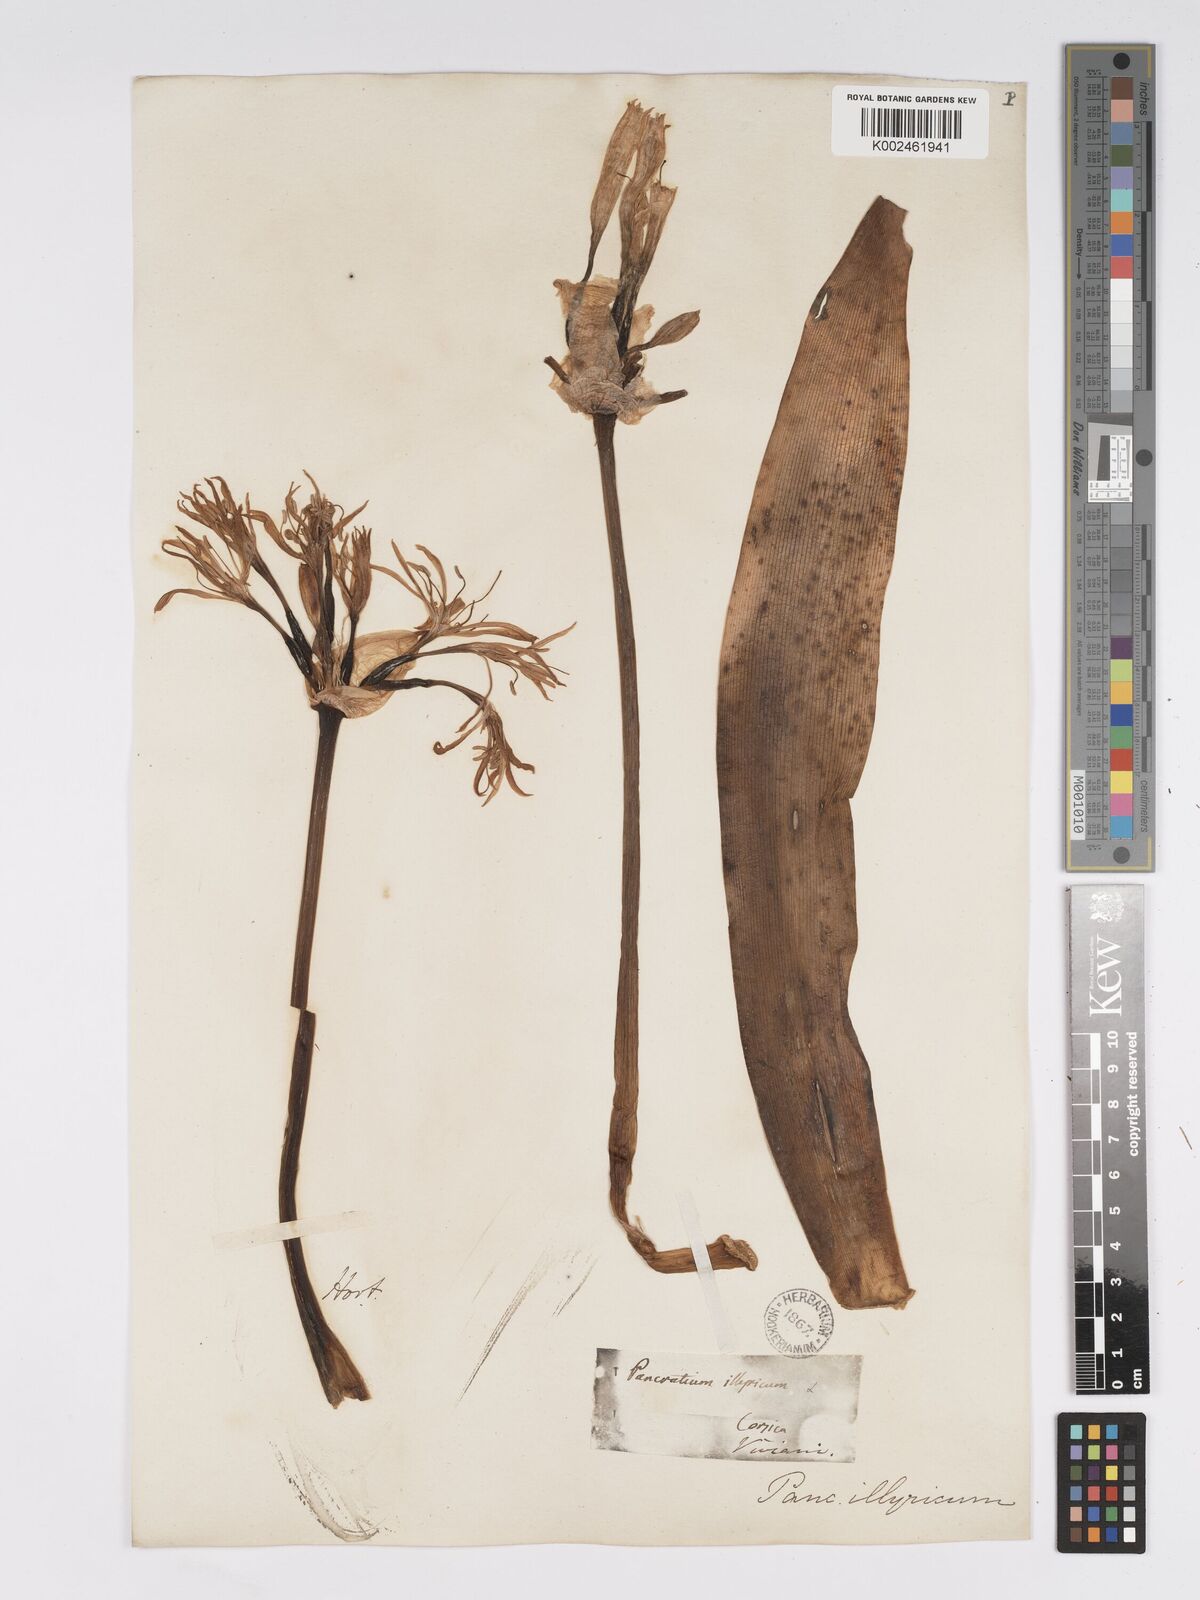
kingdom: Plantae
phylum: Tracheophyta
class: Liliopsida
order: Asparagales
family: Amaryllidaceae
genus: Pancratium
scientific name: Pancratium illyricum
